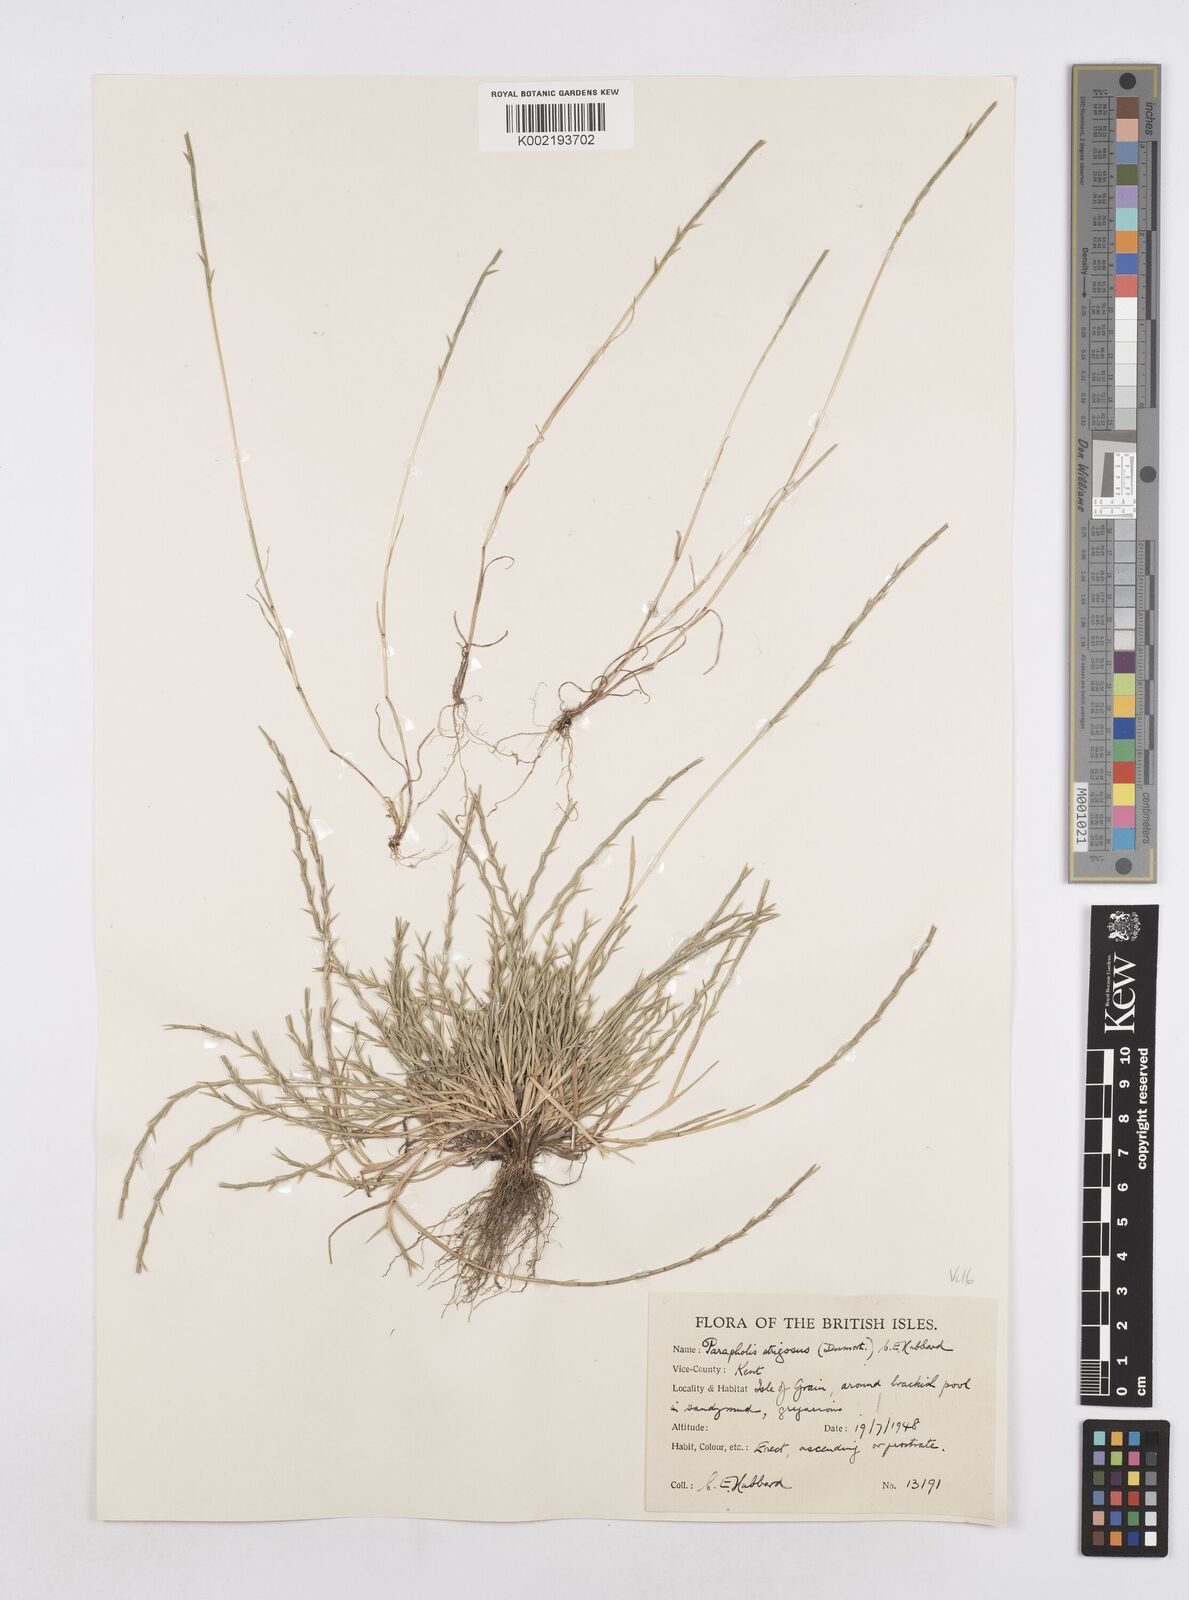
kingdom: Plantae
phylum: Tracheophyta
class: Liliopsida
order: Poales
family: Poaceae
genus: Parapholis
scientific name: Parapholis strigosa
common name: Hard-grass
